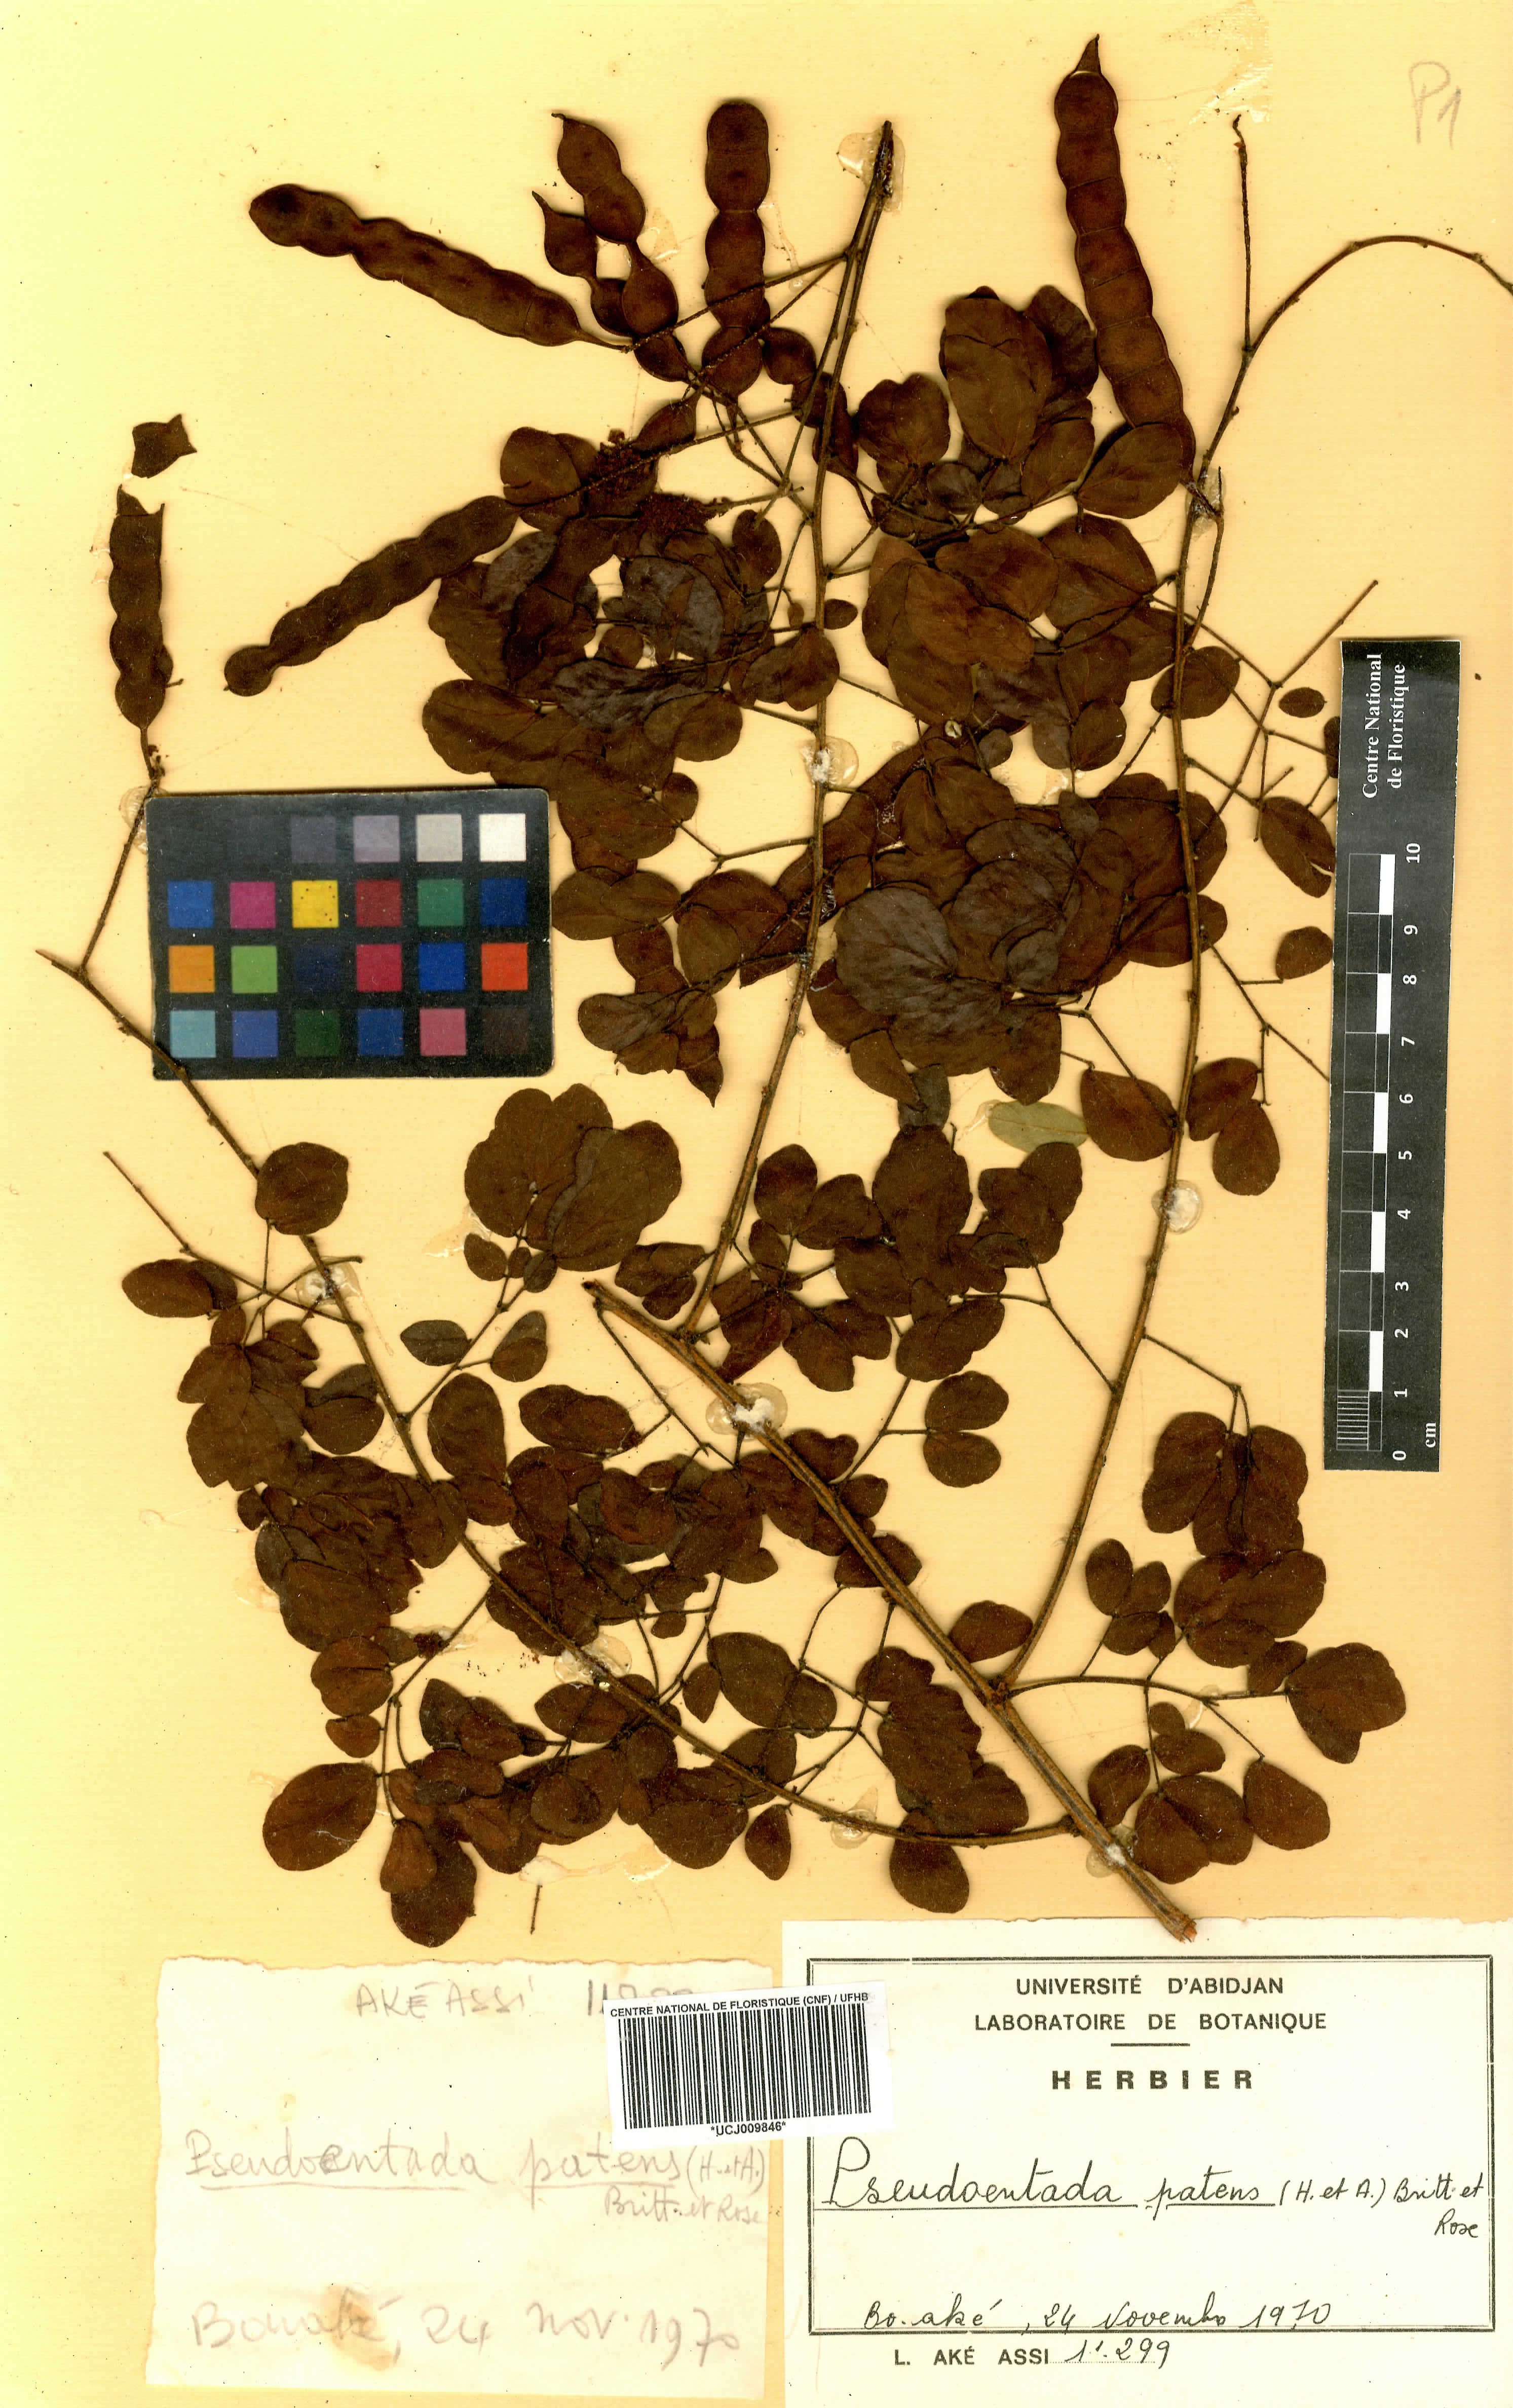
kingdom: Plantae
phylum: Tracheophyta
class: Magnoliopsida
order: Fabales
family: Fabaceae
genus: Adenopodia
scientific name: Adenopodia patens
